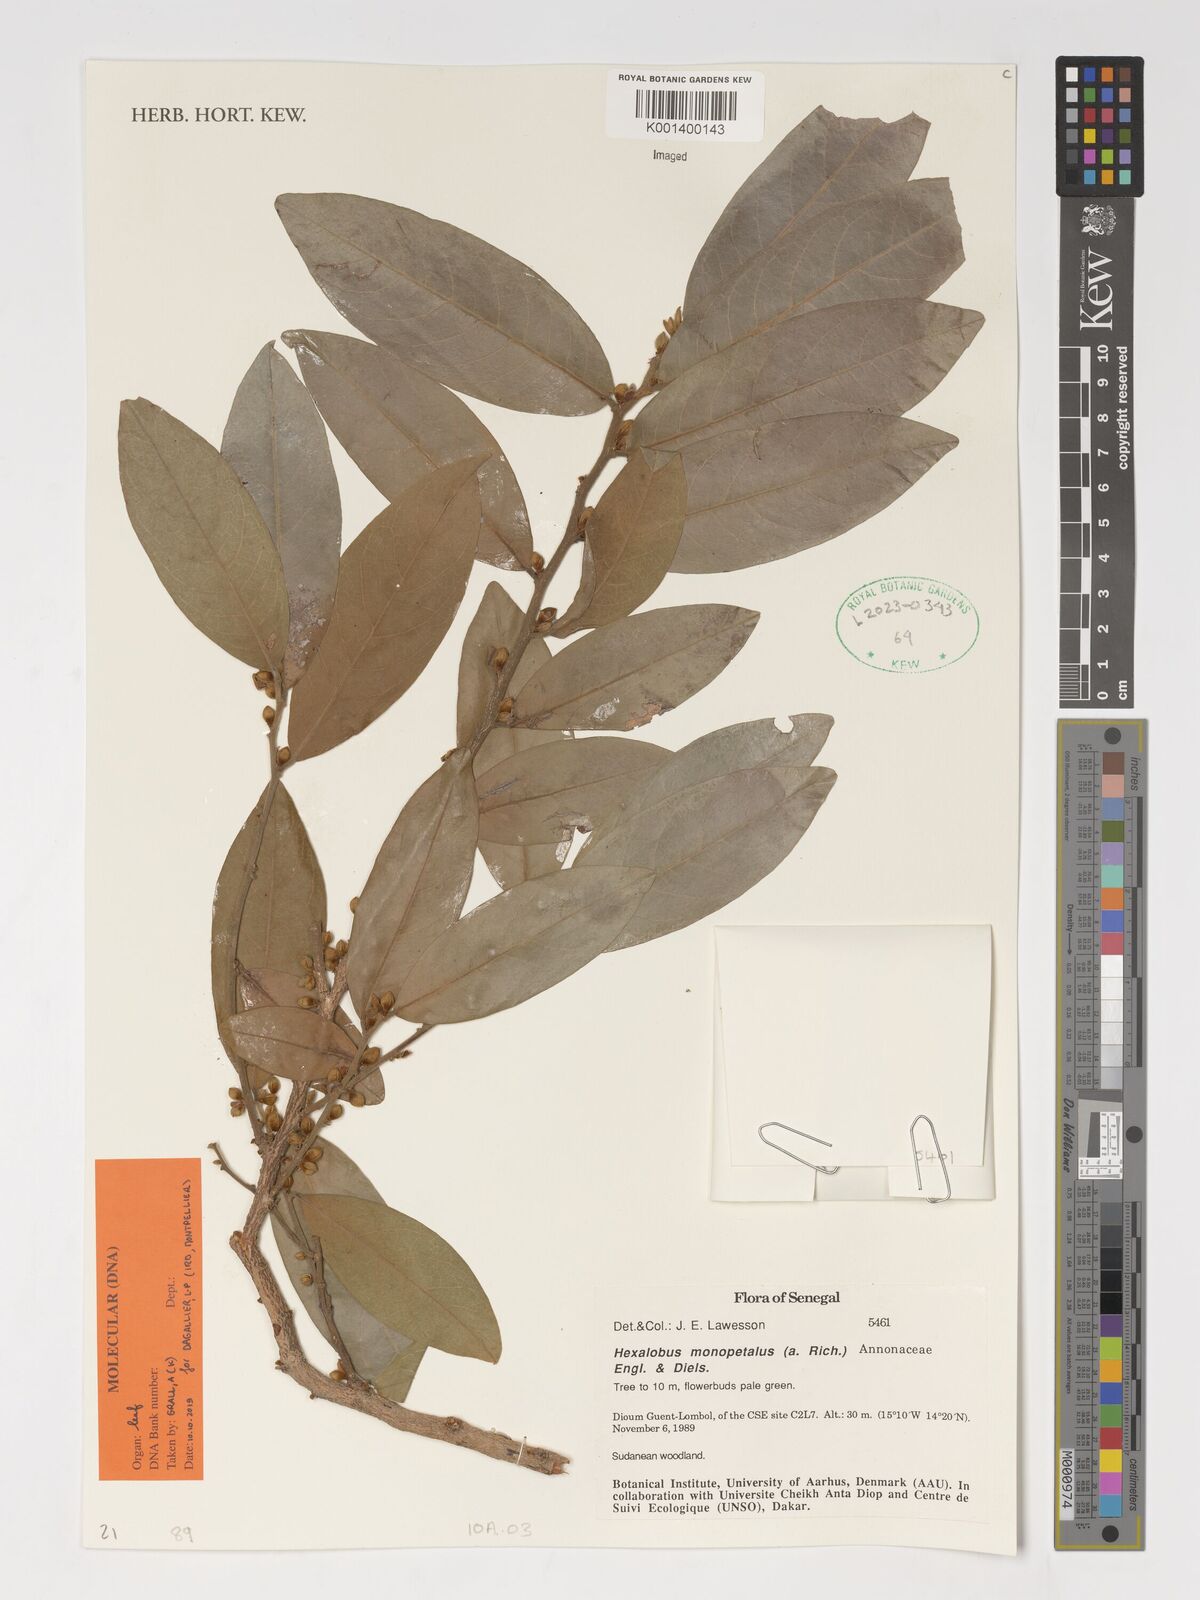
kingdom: Plantae
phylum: Tracheophyta
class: Magnoliopsida
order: Magnoliales
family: Annonaceae
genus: Hexalobus
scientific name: Hexalobus monopetalus
